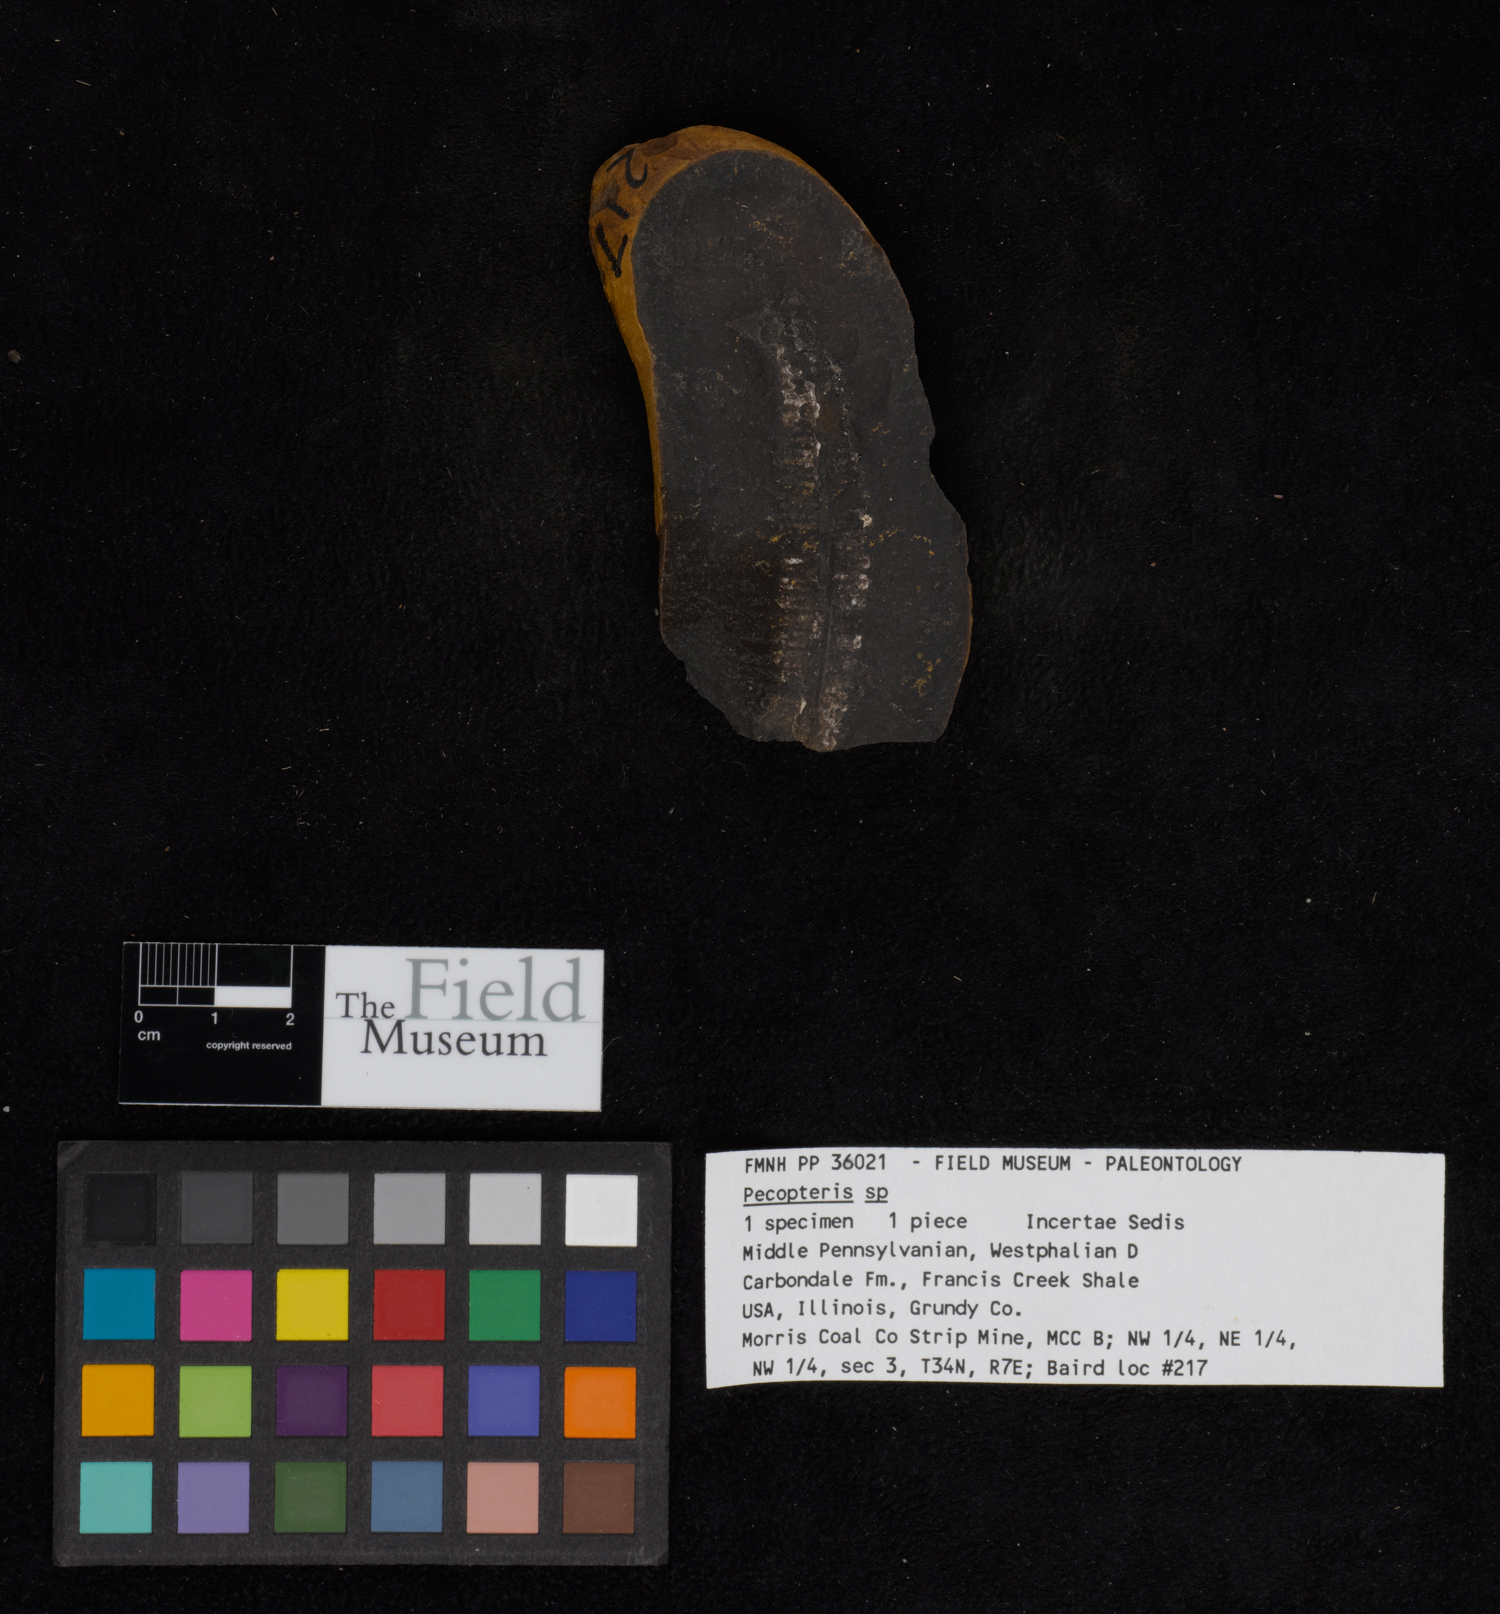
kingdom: Plantae
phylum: Tracheophyta
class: Polypodiopsida
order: Marattiales
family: Asterothecaceae
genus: Pecopteris
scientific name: Pecopteris
